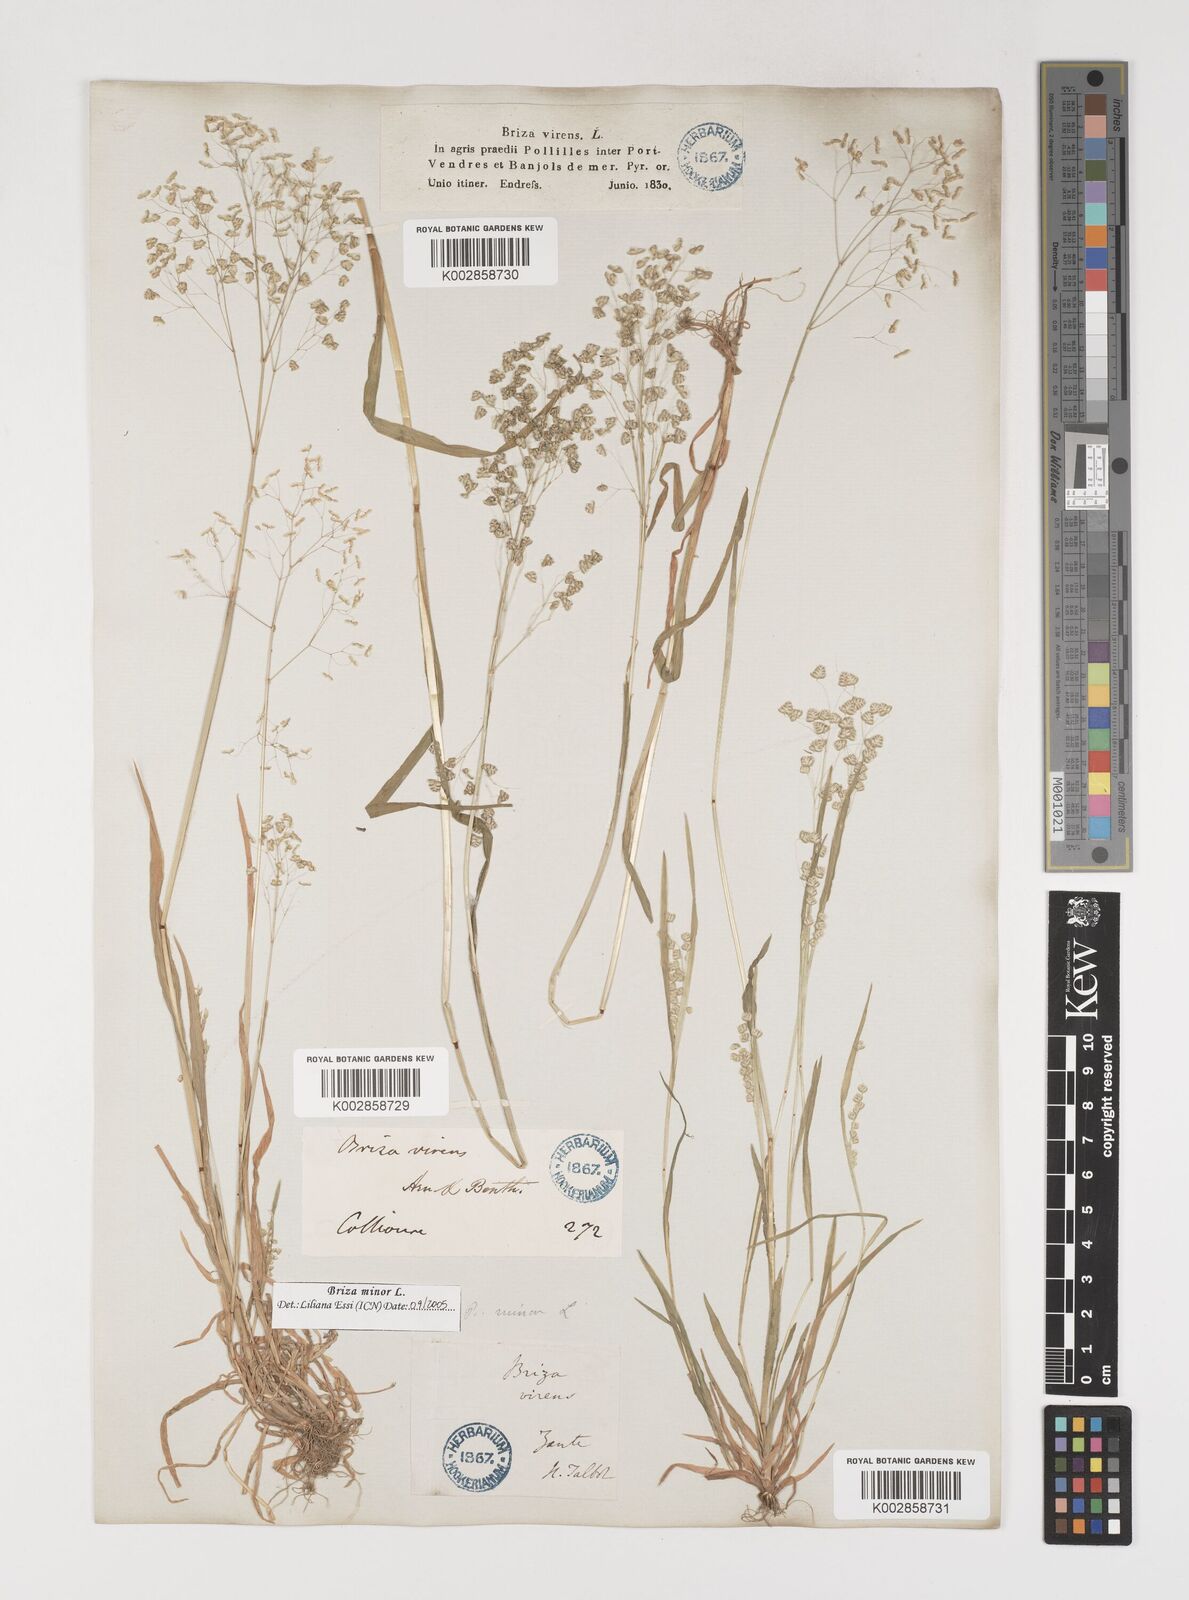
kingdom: Plantae
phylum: Tracheophyta
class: Liliopsida
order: Poales
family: Poaceae
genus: Briza
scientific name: Briza minor
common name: Lesser quaking-grass
